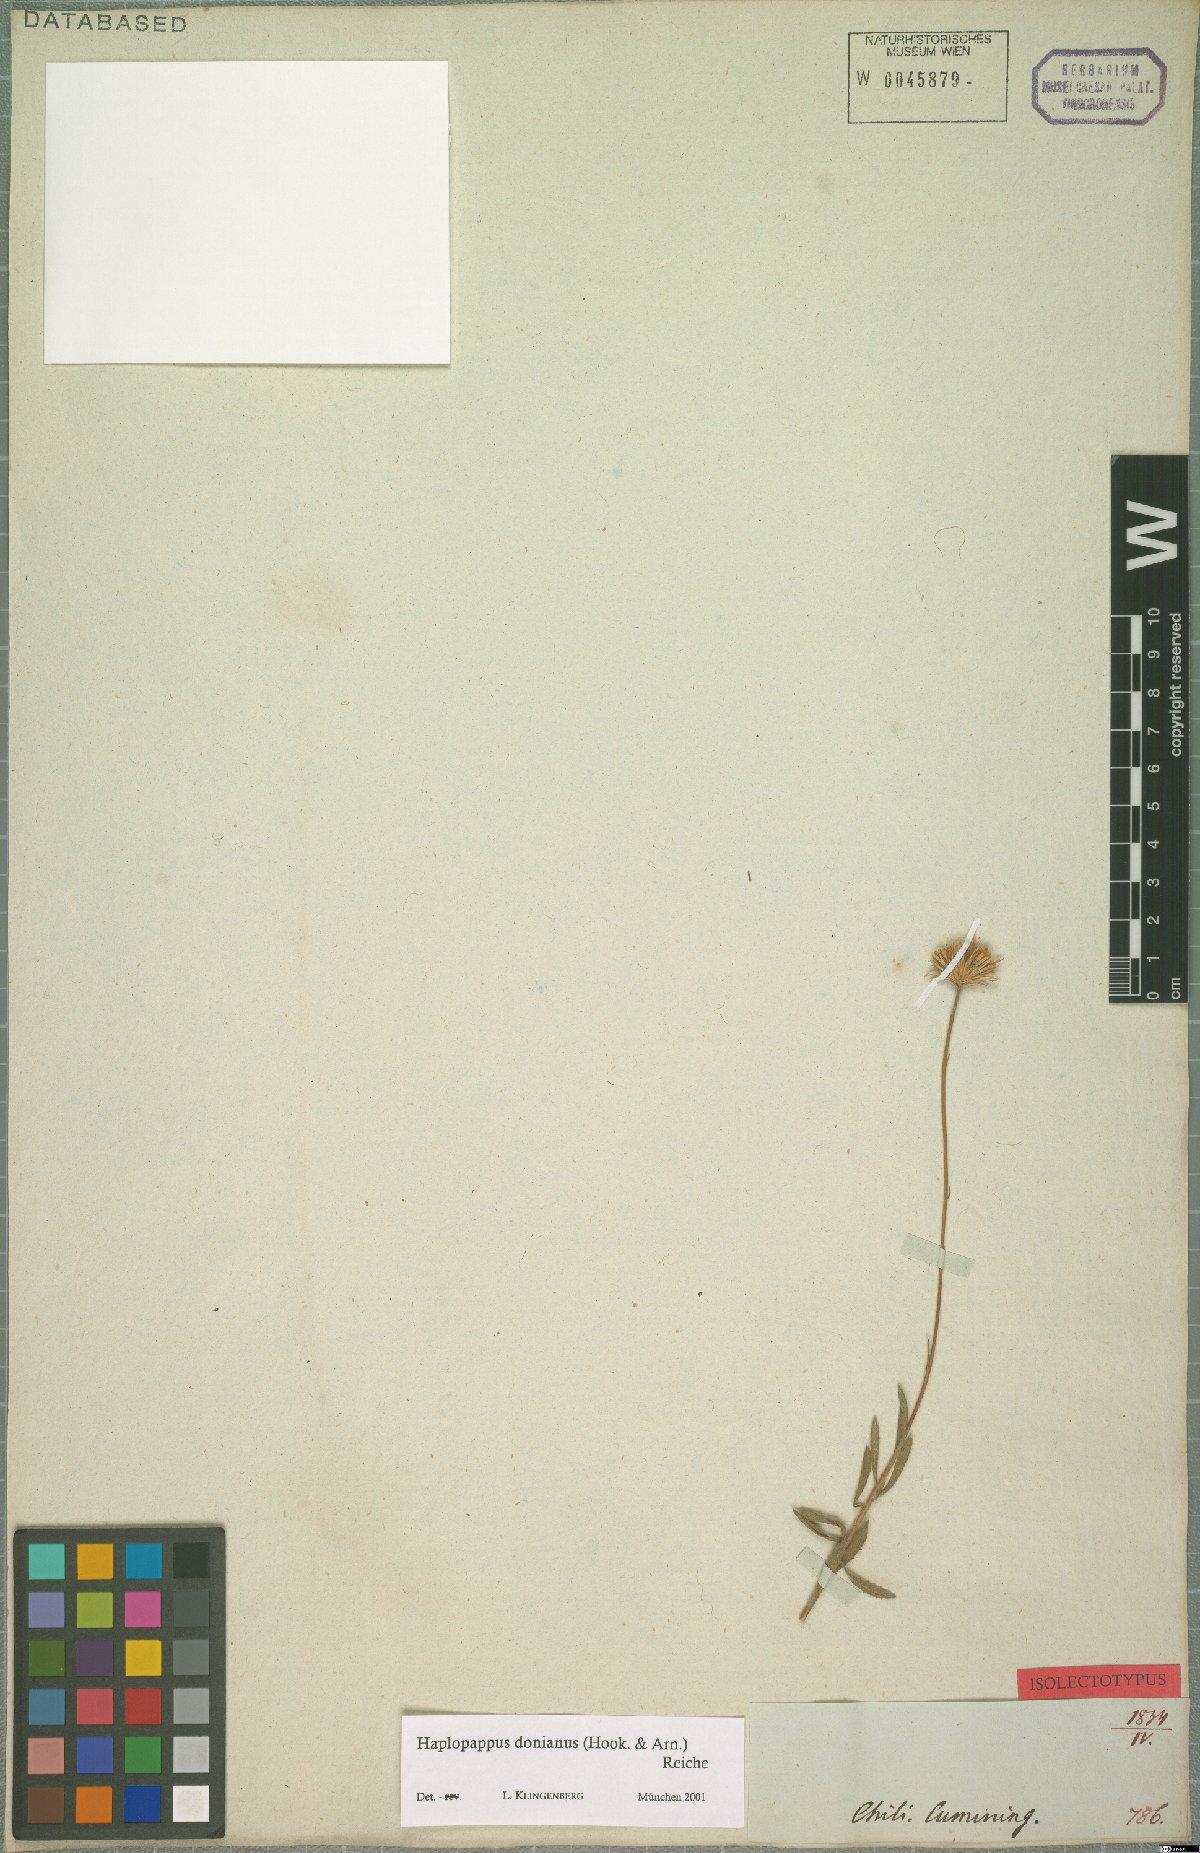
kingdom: Plantae
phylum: Tracheophyta
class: Magnoliopsida
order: Asterales
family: Asteraceae
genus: Haplopappus
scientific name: Haplopappus donianus
